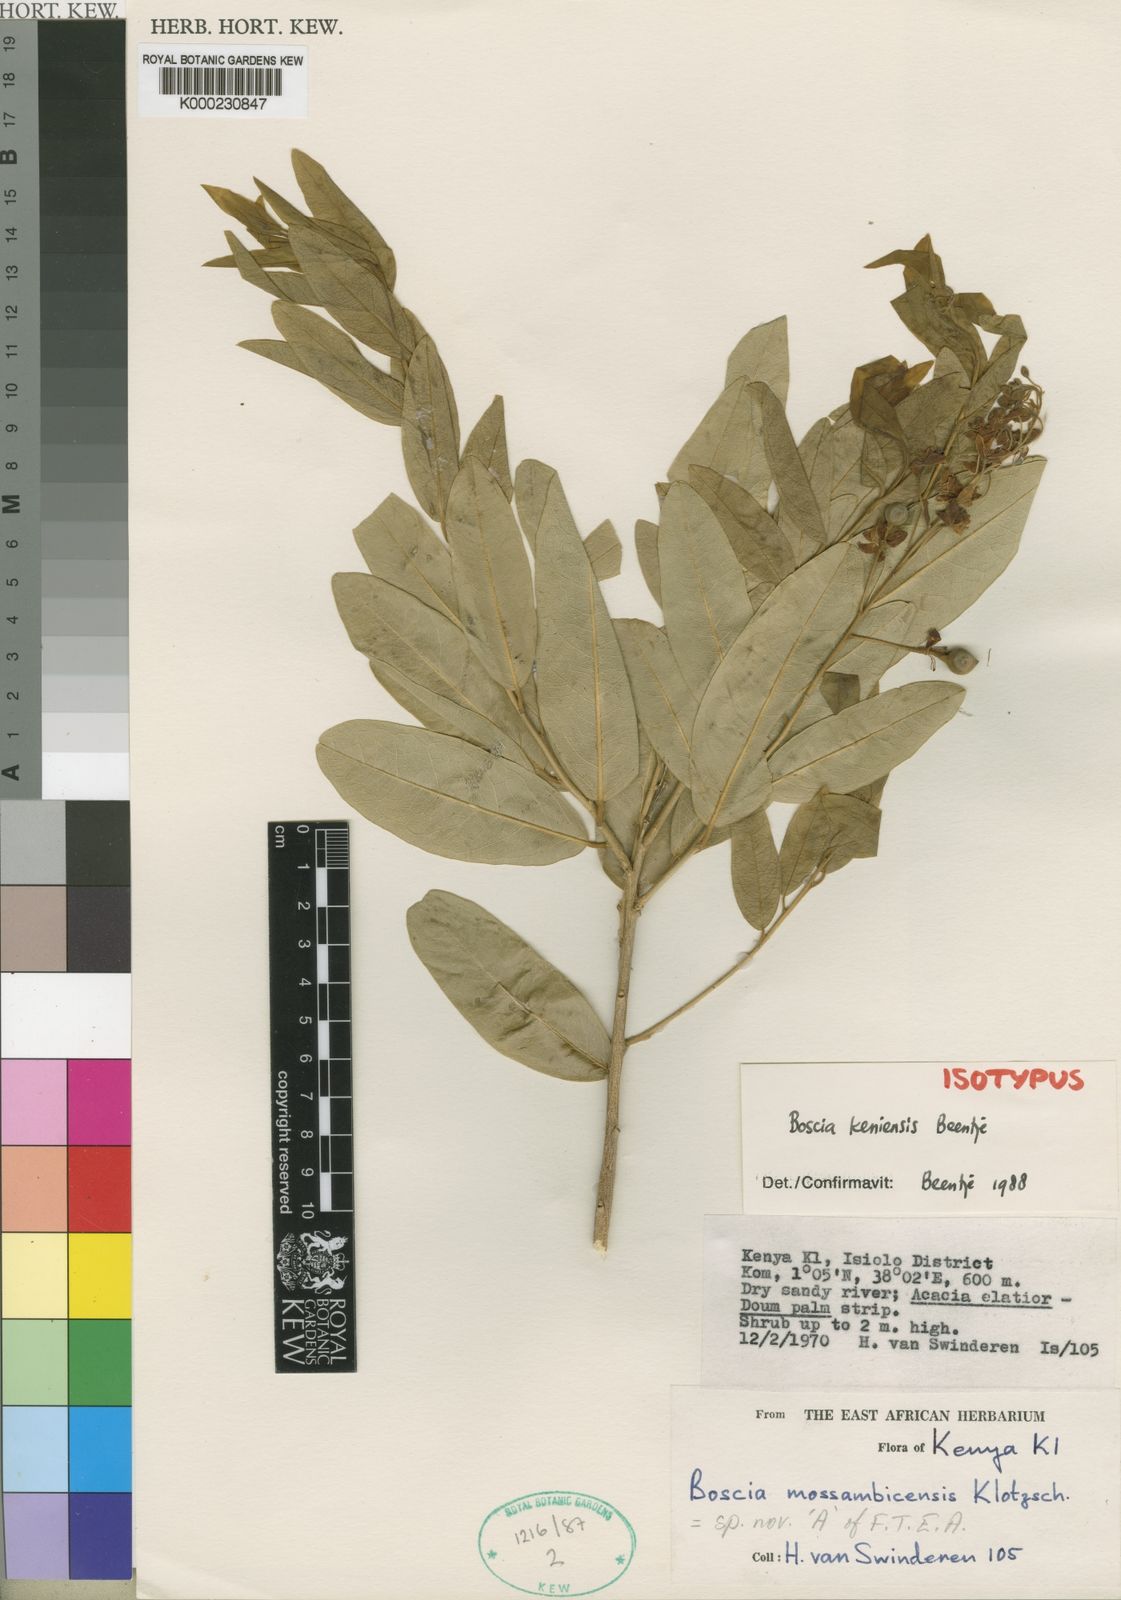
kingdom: Plantae
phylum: Tracheophyta
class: Magnoliopsida
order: Brassicales
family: Capparaceae
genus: Boscia
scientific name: Boscia keniensis
